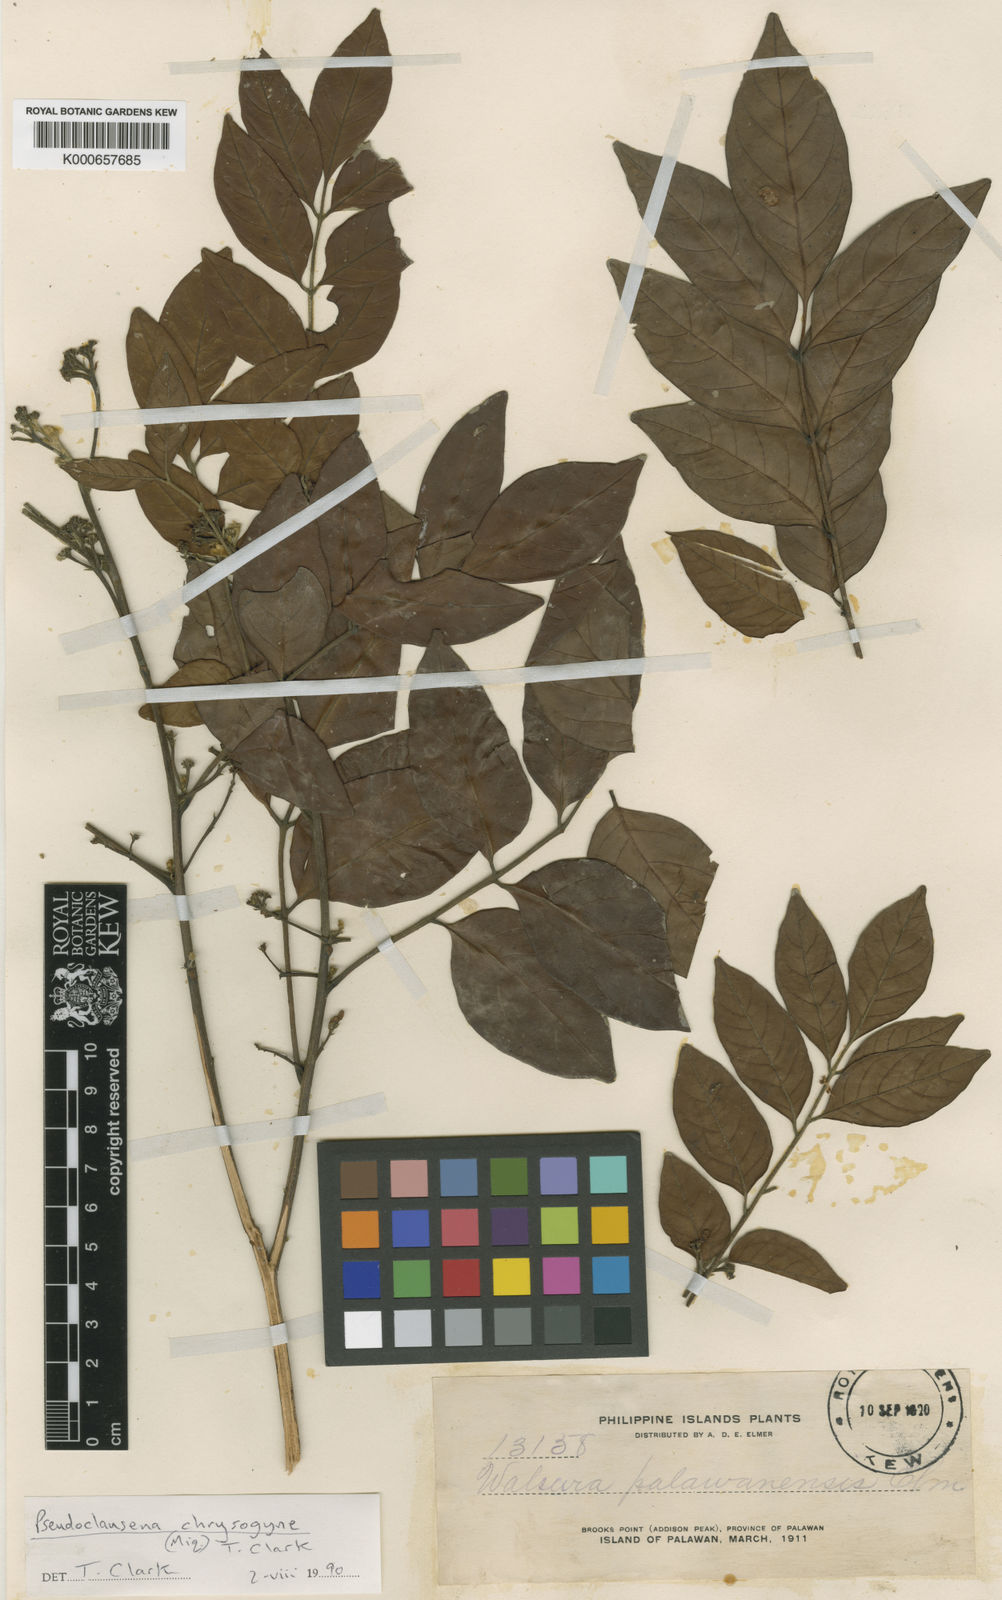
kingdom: Plantae
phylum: Tracheophyta
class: Magnoliopsida
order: Sapindales
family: Meliaceae
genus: Walsura
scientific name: Walsura
